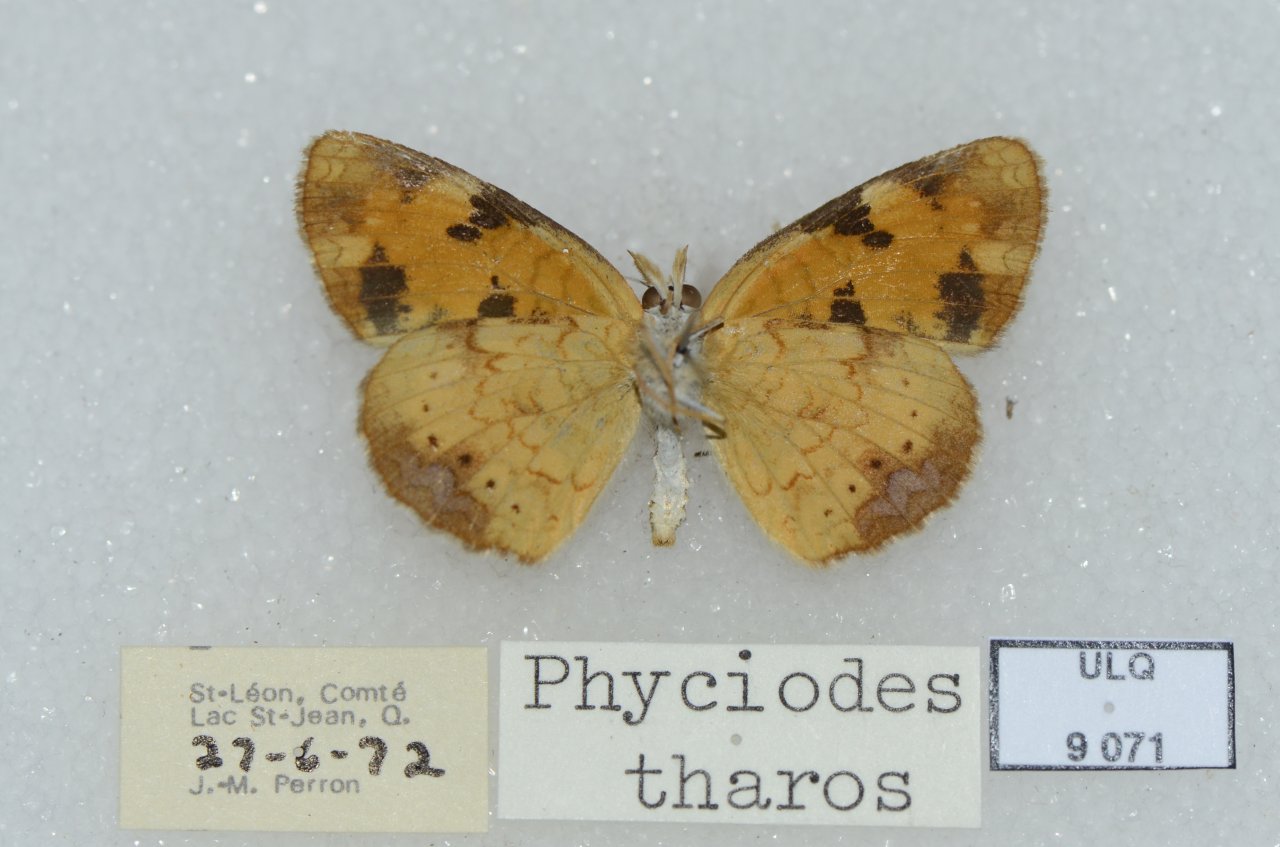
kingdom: Animalia
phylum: Arthropoda
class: Insecta
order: Lepidoptera
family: Nymphalidae
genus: Phyciodes
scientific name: Phyciodes tharos
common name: Northern Crescent
